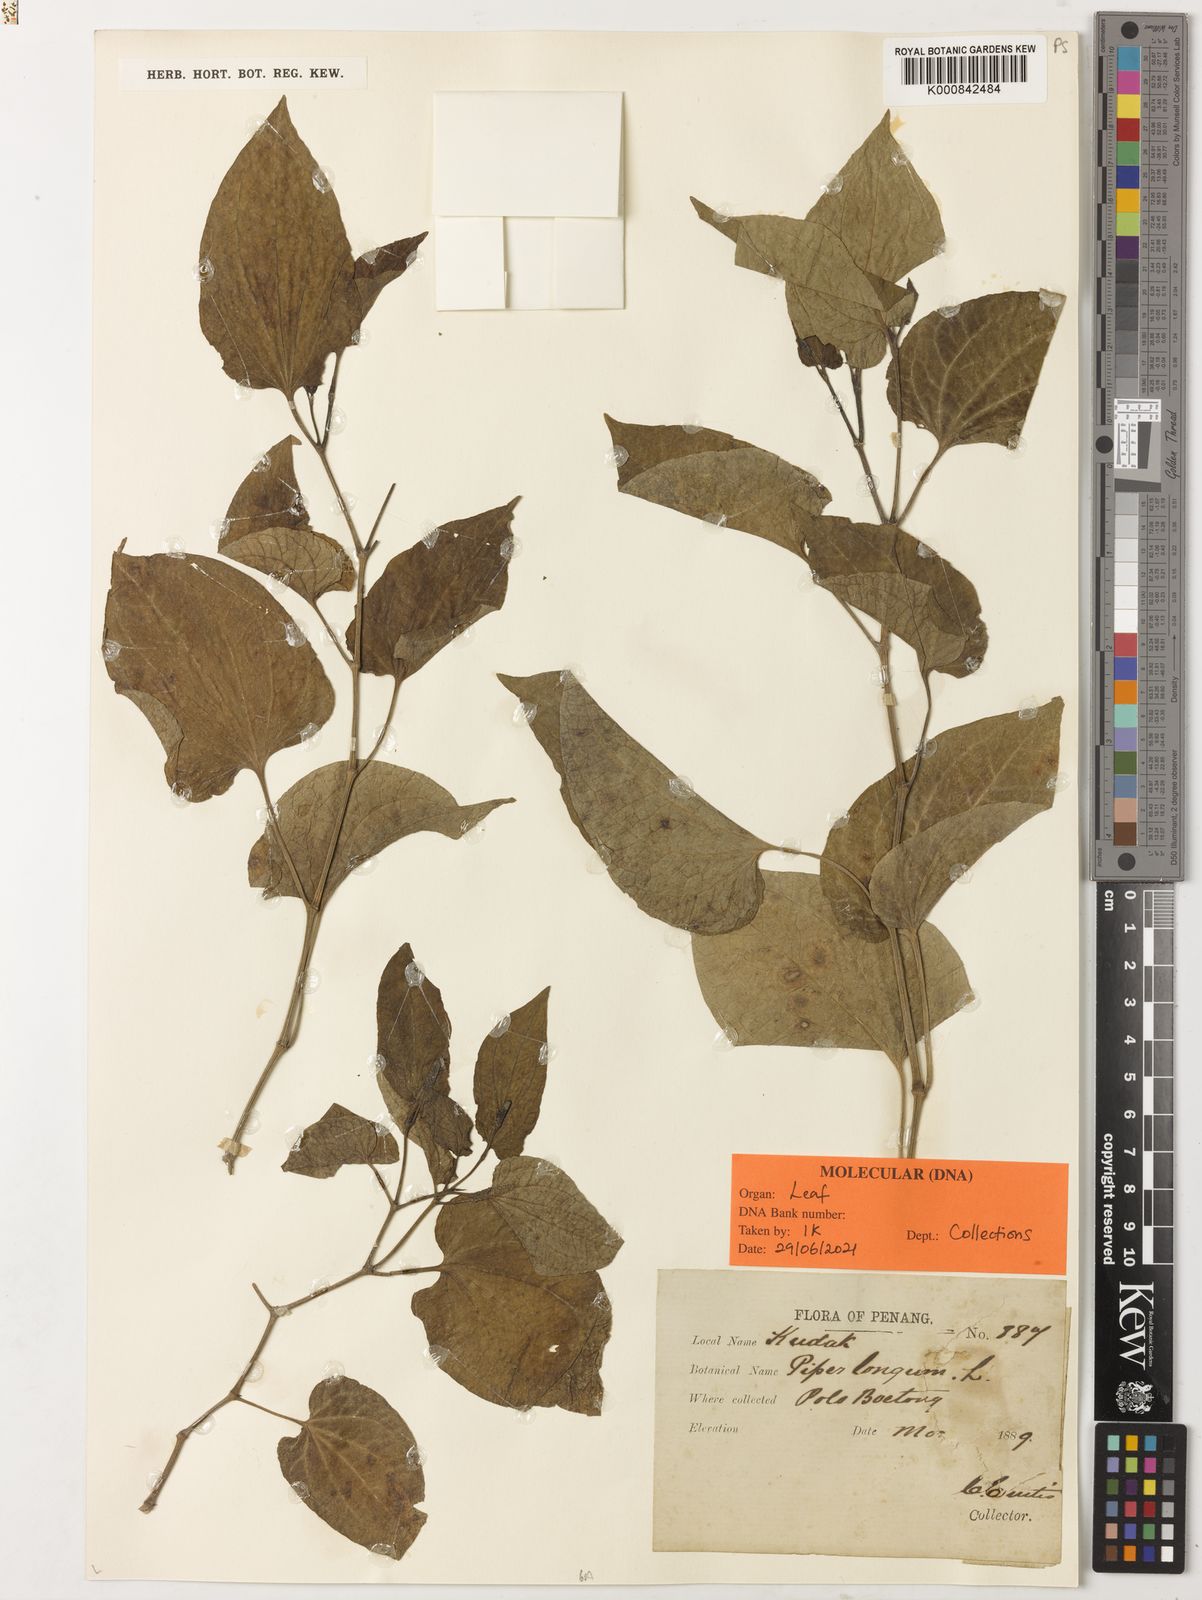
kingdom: Plantae
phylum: Tracheophyta
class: Magnoliopsida
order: Piperales
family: Piperaceae
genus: Piper
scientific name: Piper longum
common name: Long pepper
